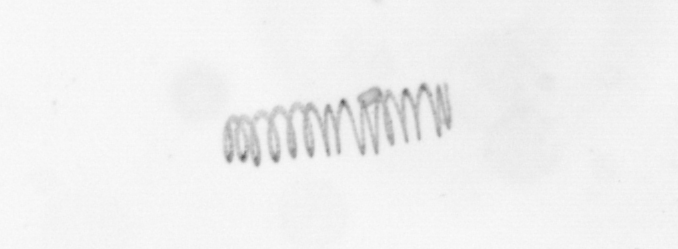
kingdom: Chromista
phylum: Ochrophyta
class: Bacillariophyceae
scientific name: Bacillariophyceae
